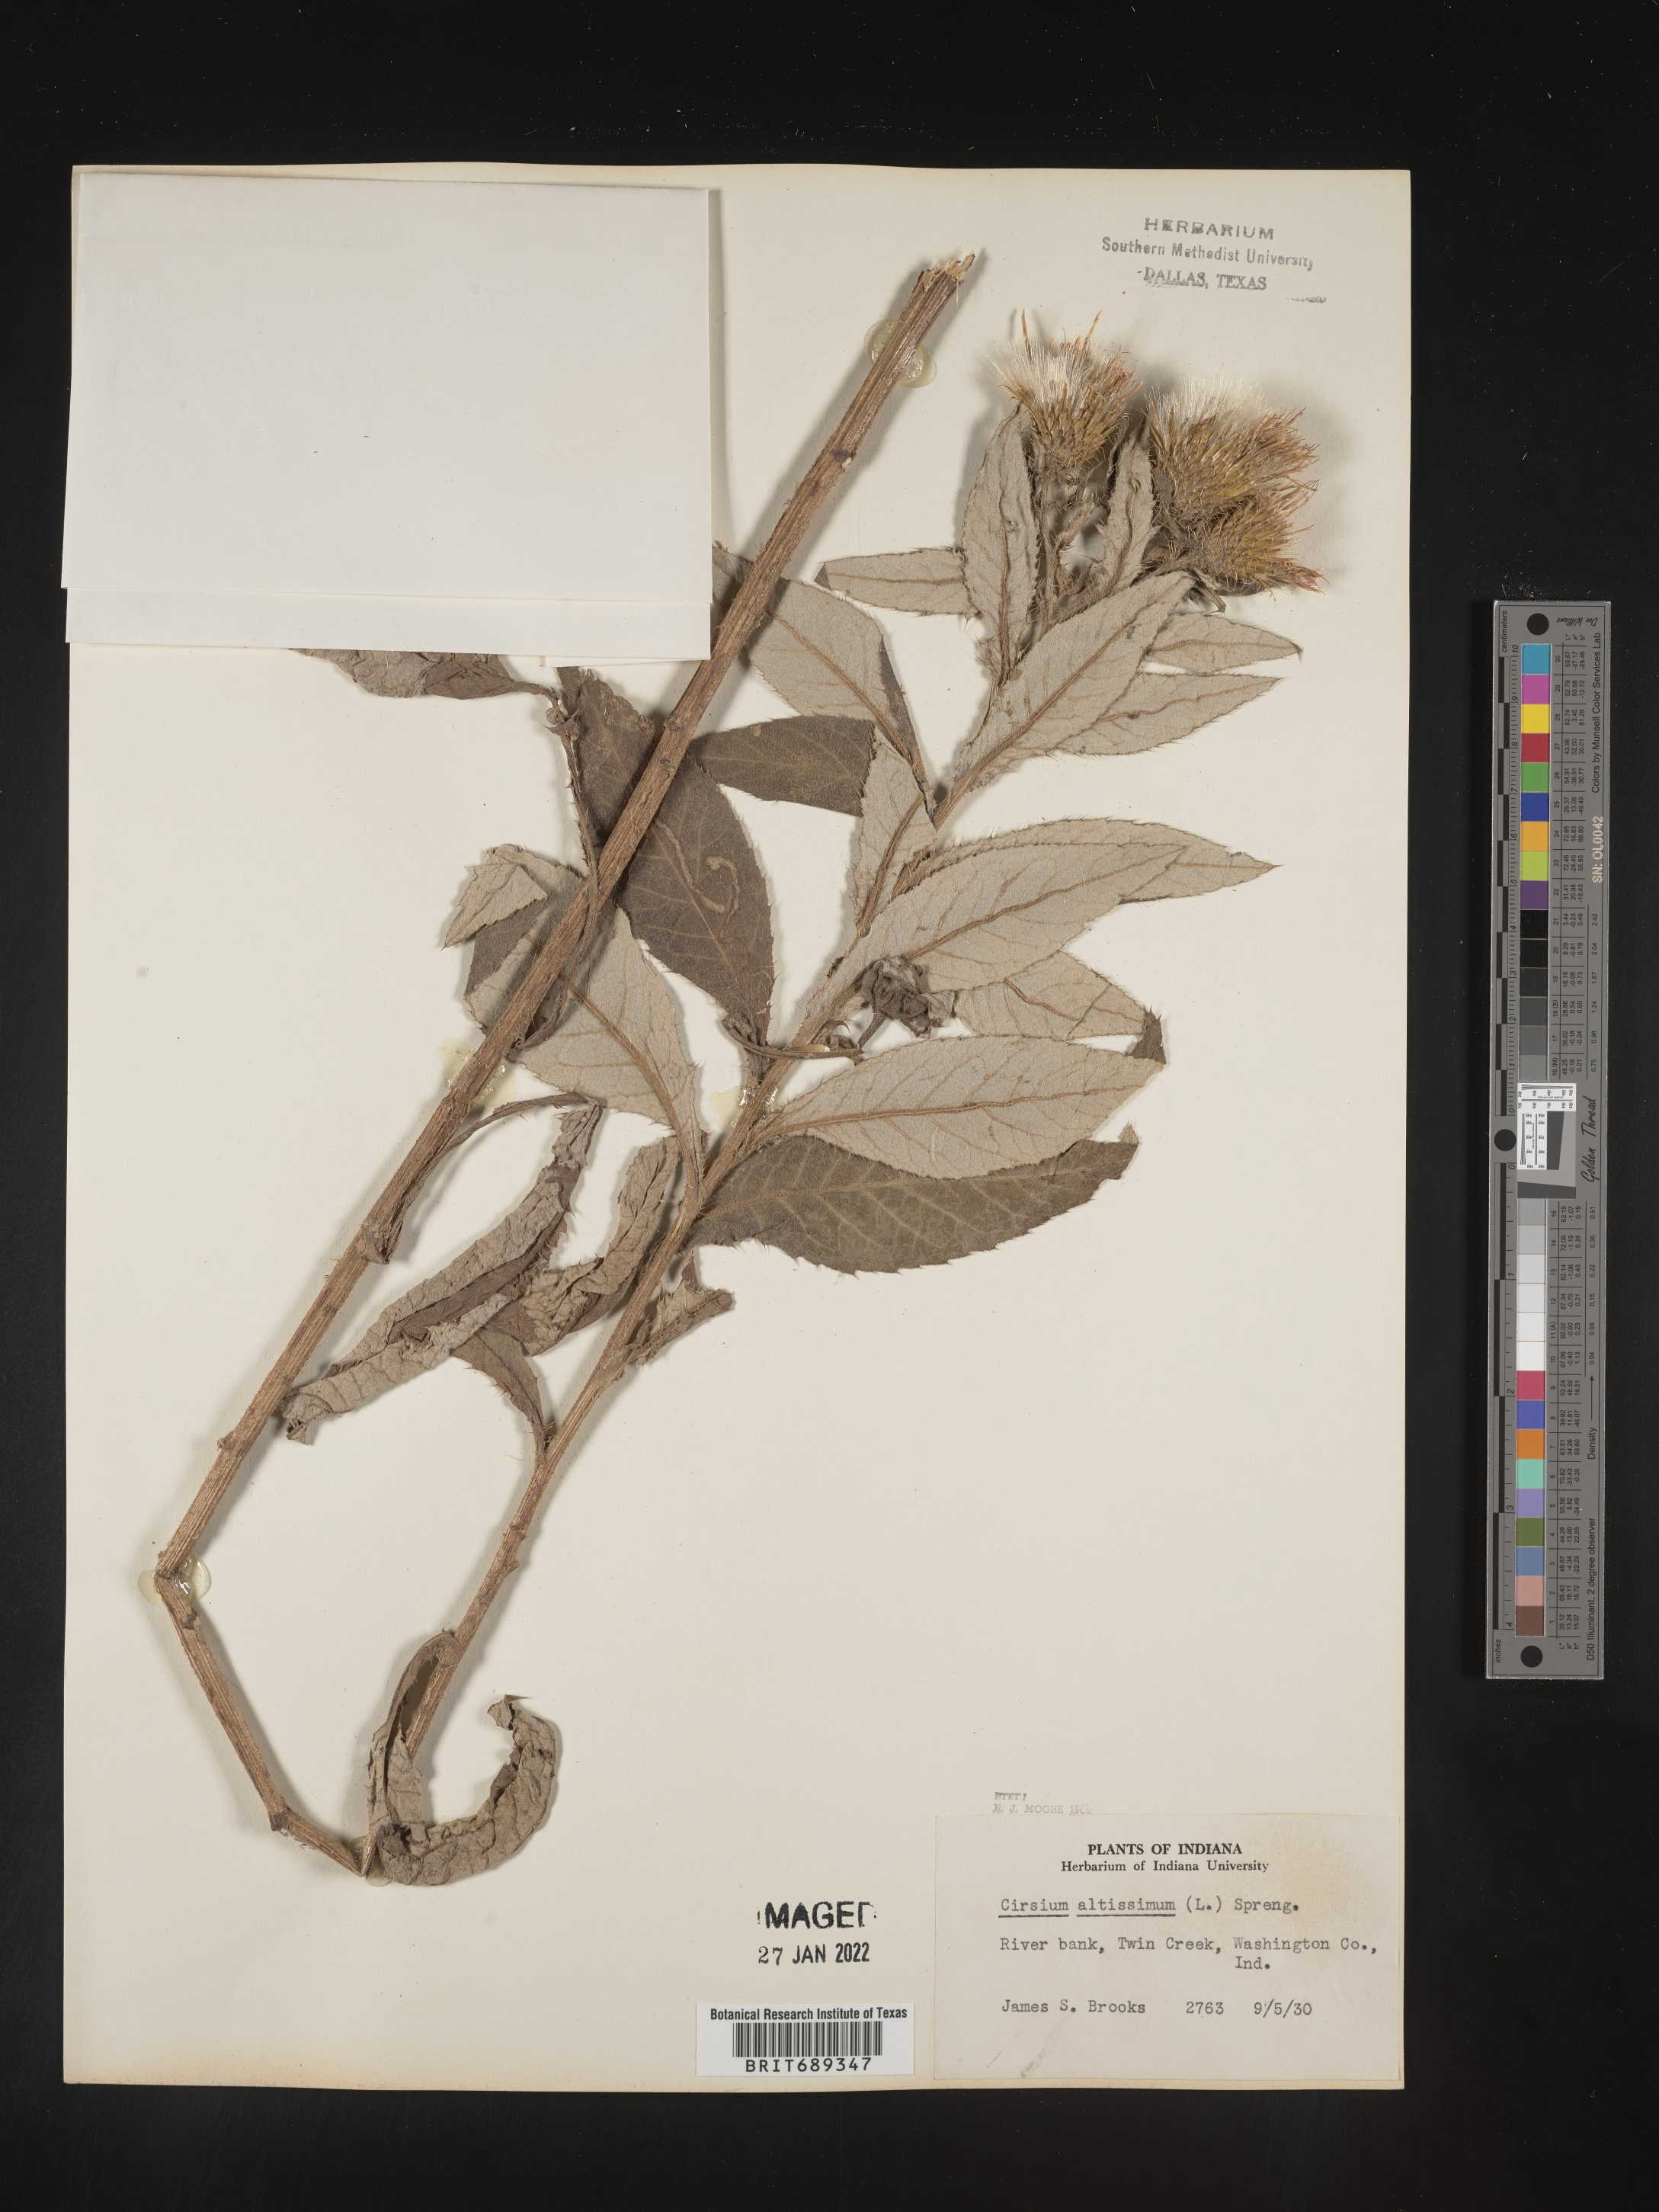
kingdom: Plantae
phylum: Tracheophyta
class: Magnoliopsida
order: Asterales
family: Asteraceae
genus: Cirsium
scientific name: Cirsium altissimum
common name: Roadside thistle
